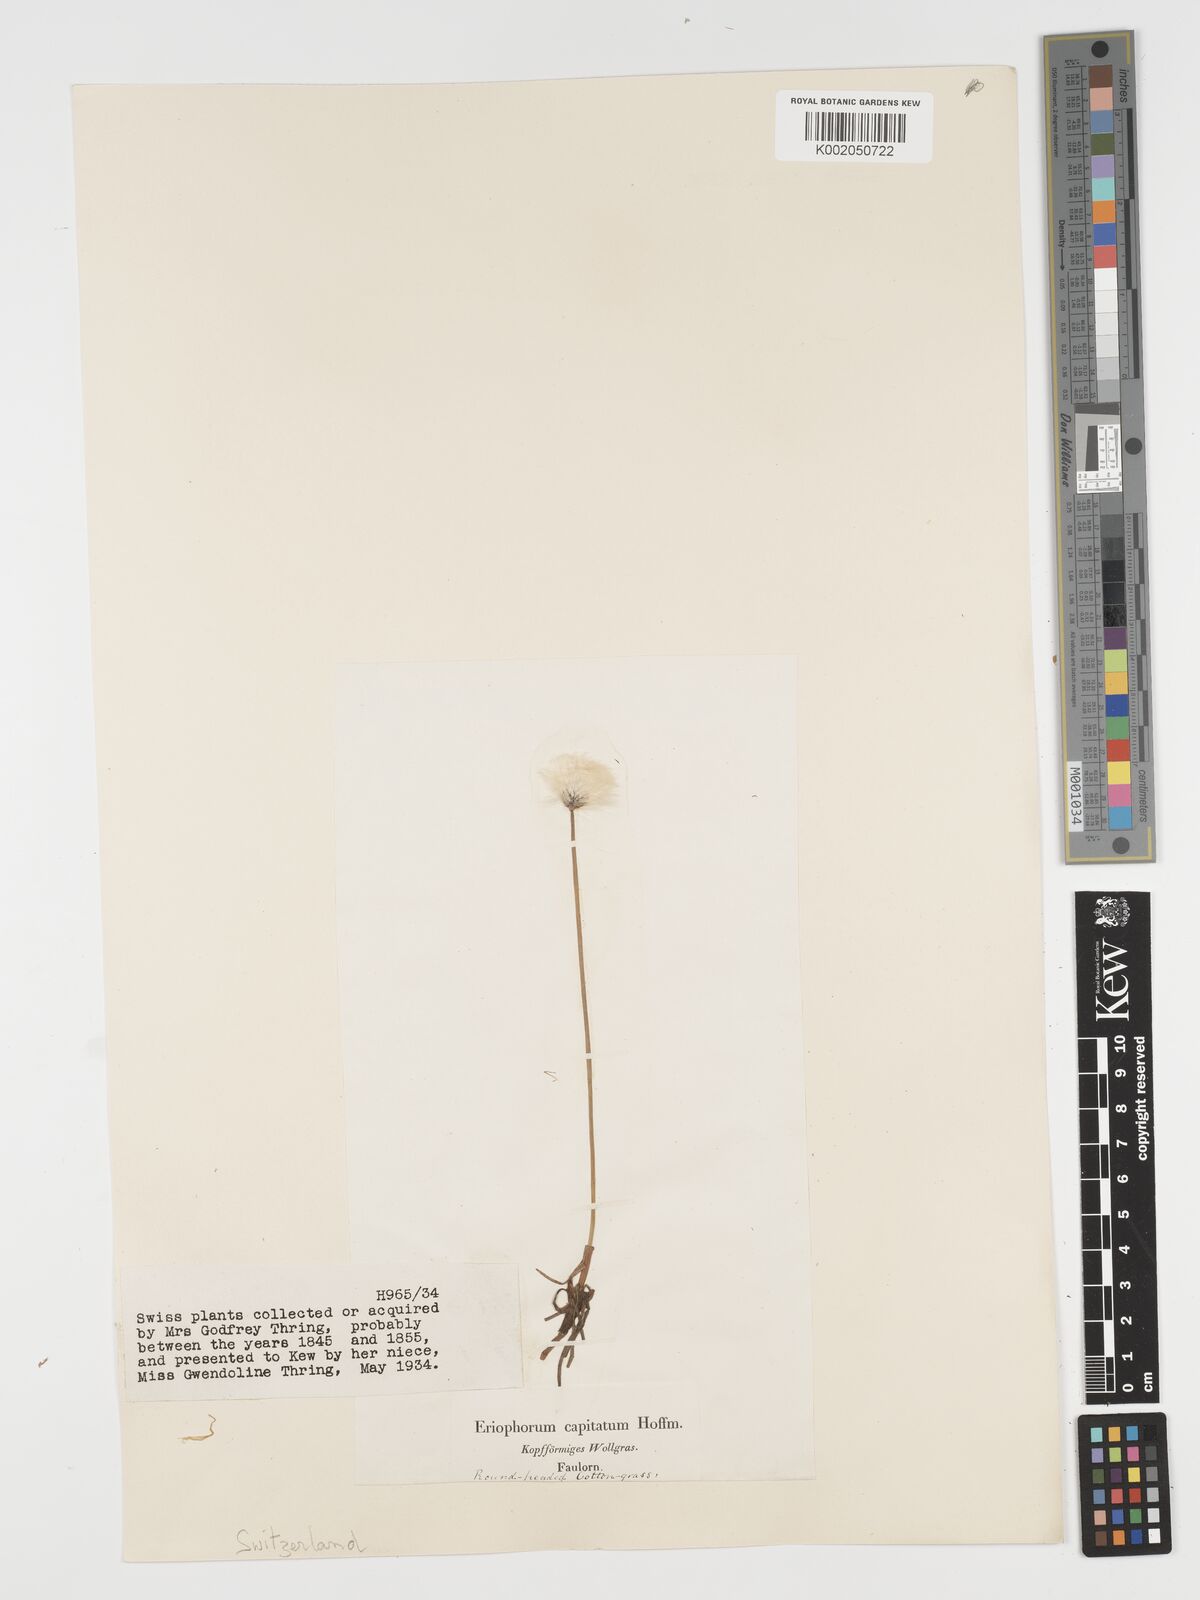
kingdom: Plantae
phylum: Tracheophyta
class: Liliopsida
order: Poales
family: Cyperaceae
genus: Eriophorum
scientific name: Eriophorum vaginatum
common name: Hare's-tail cottongrass
